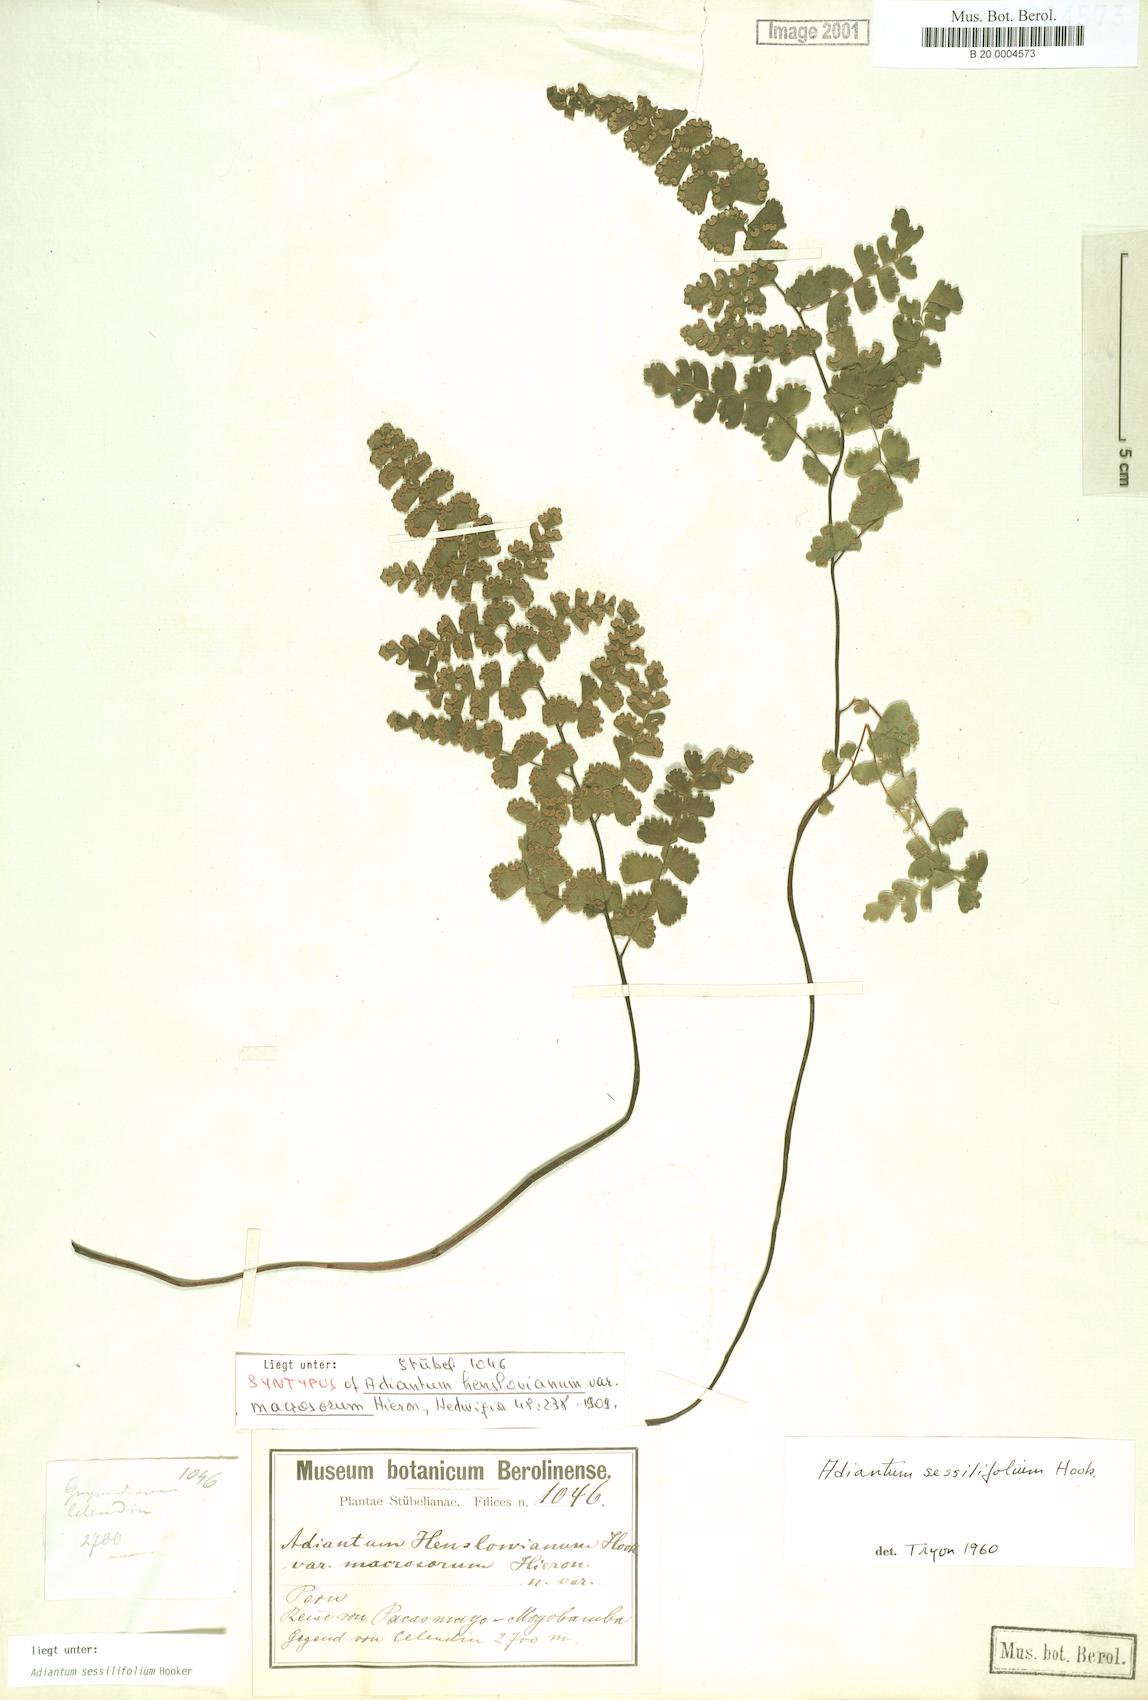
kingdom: Plantae
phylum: Tracheophyta
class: Polypodiopsida
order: Polypodiales
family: Pteridaceae
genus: Adiantum
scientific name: Adiantum henslovianum
